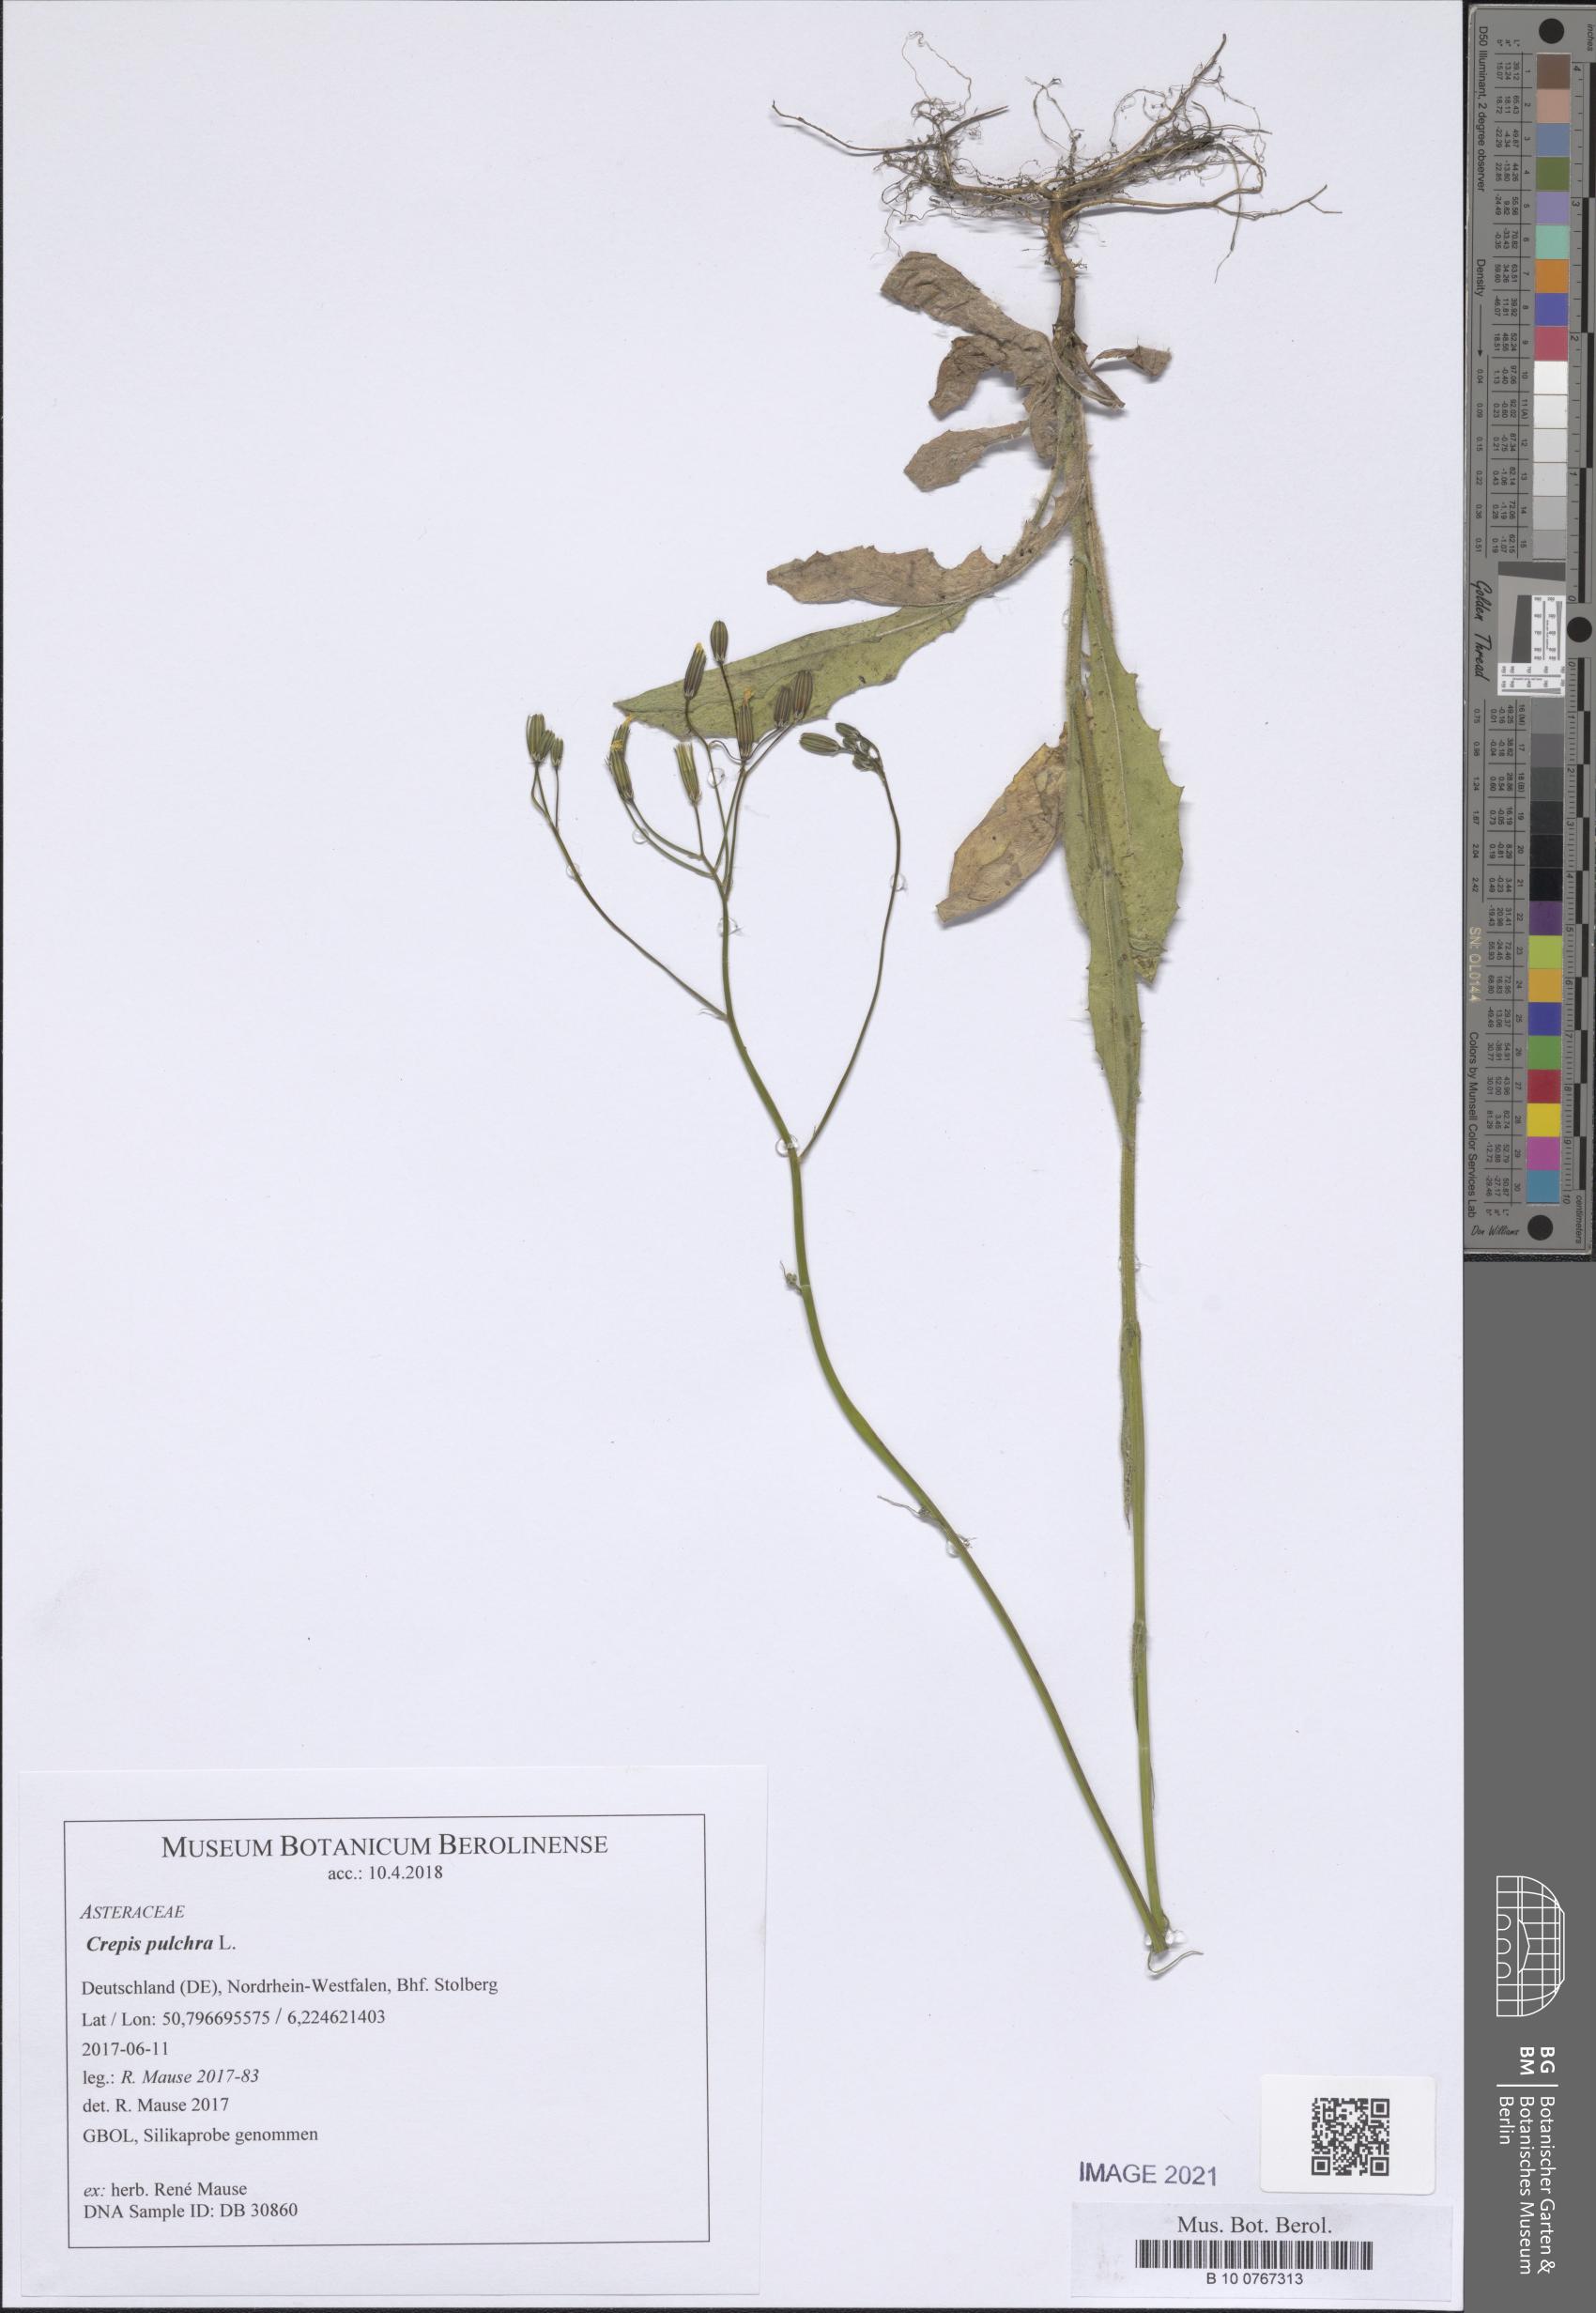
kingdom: Plantae
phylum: Tracheophyta
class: Magnoliopsida
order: Asterales
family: Asteraceae
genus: Crepis
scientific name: Crepis pulchra
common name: Hawk's-beard
